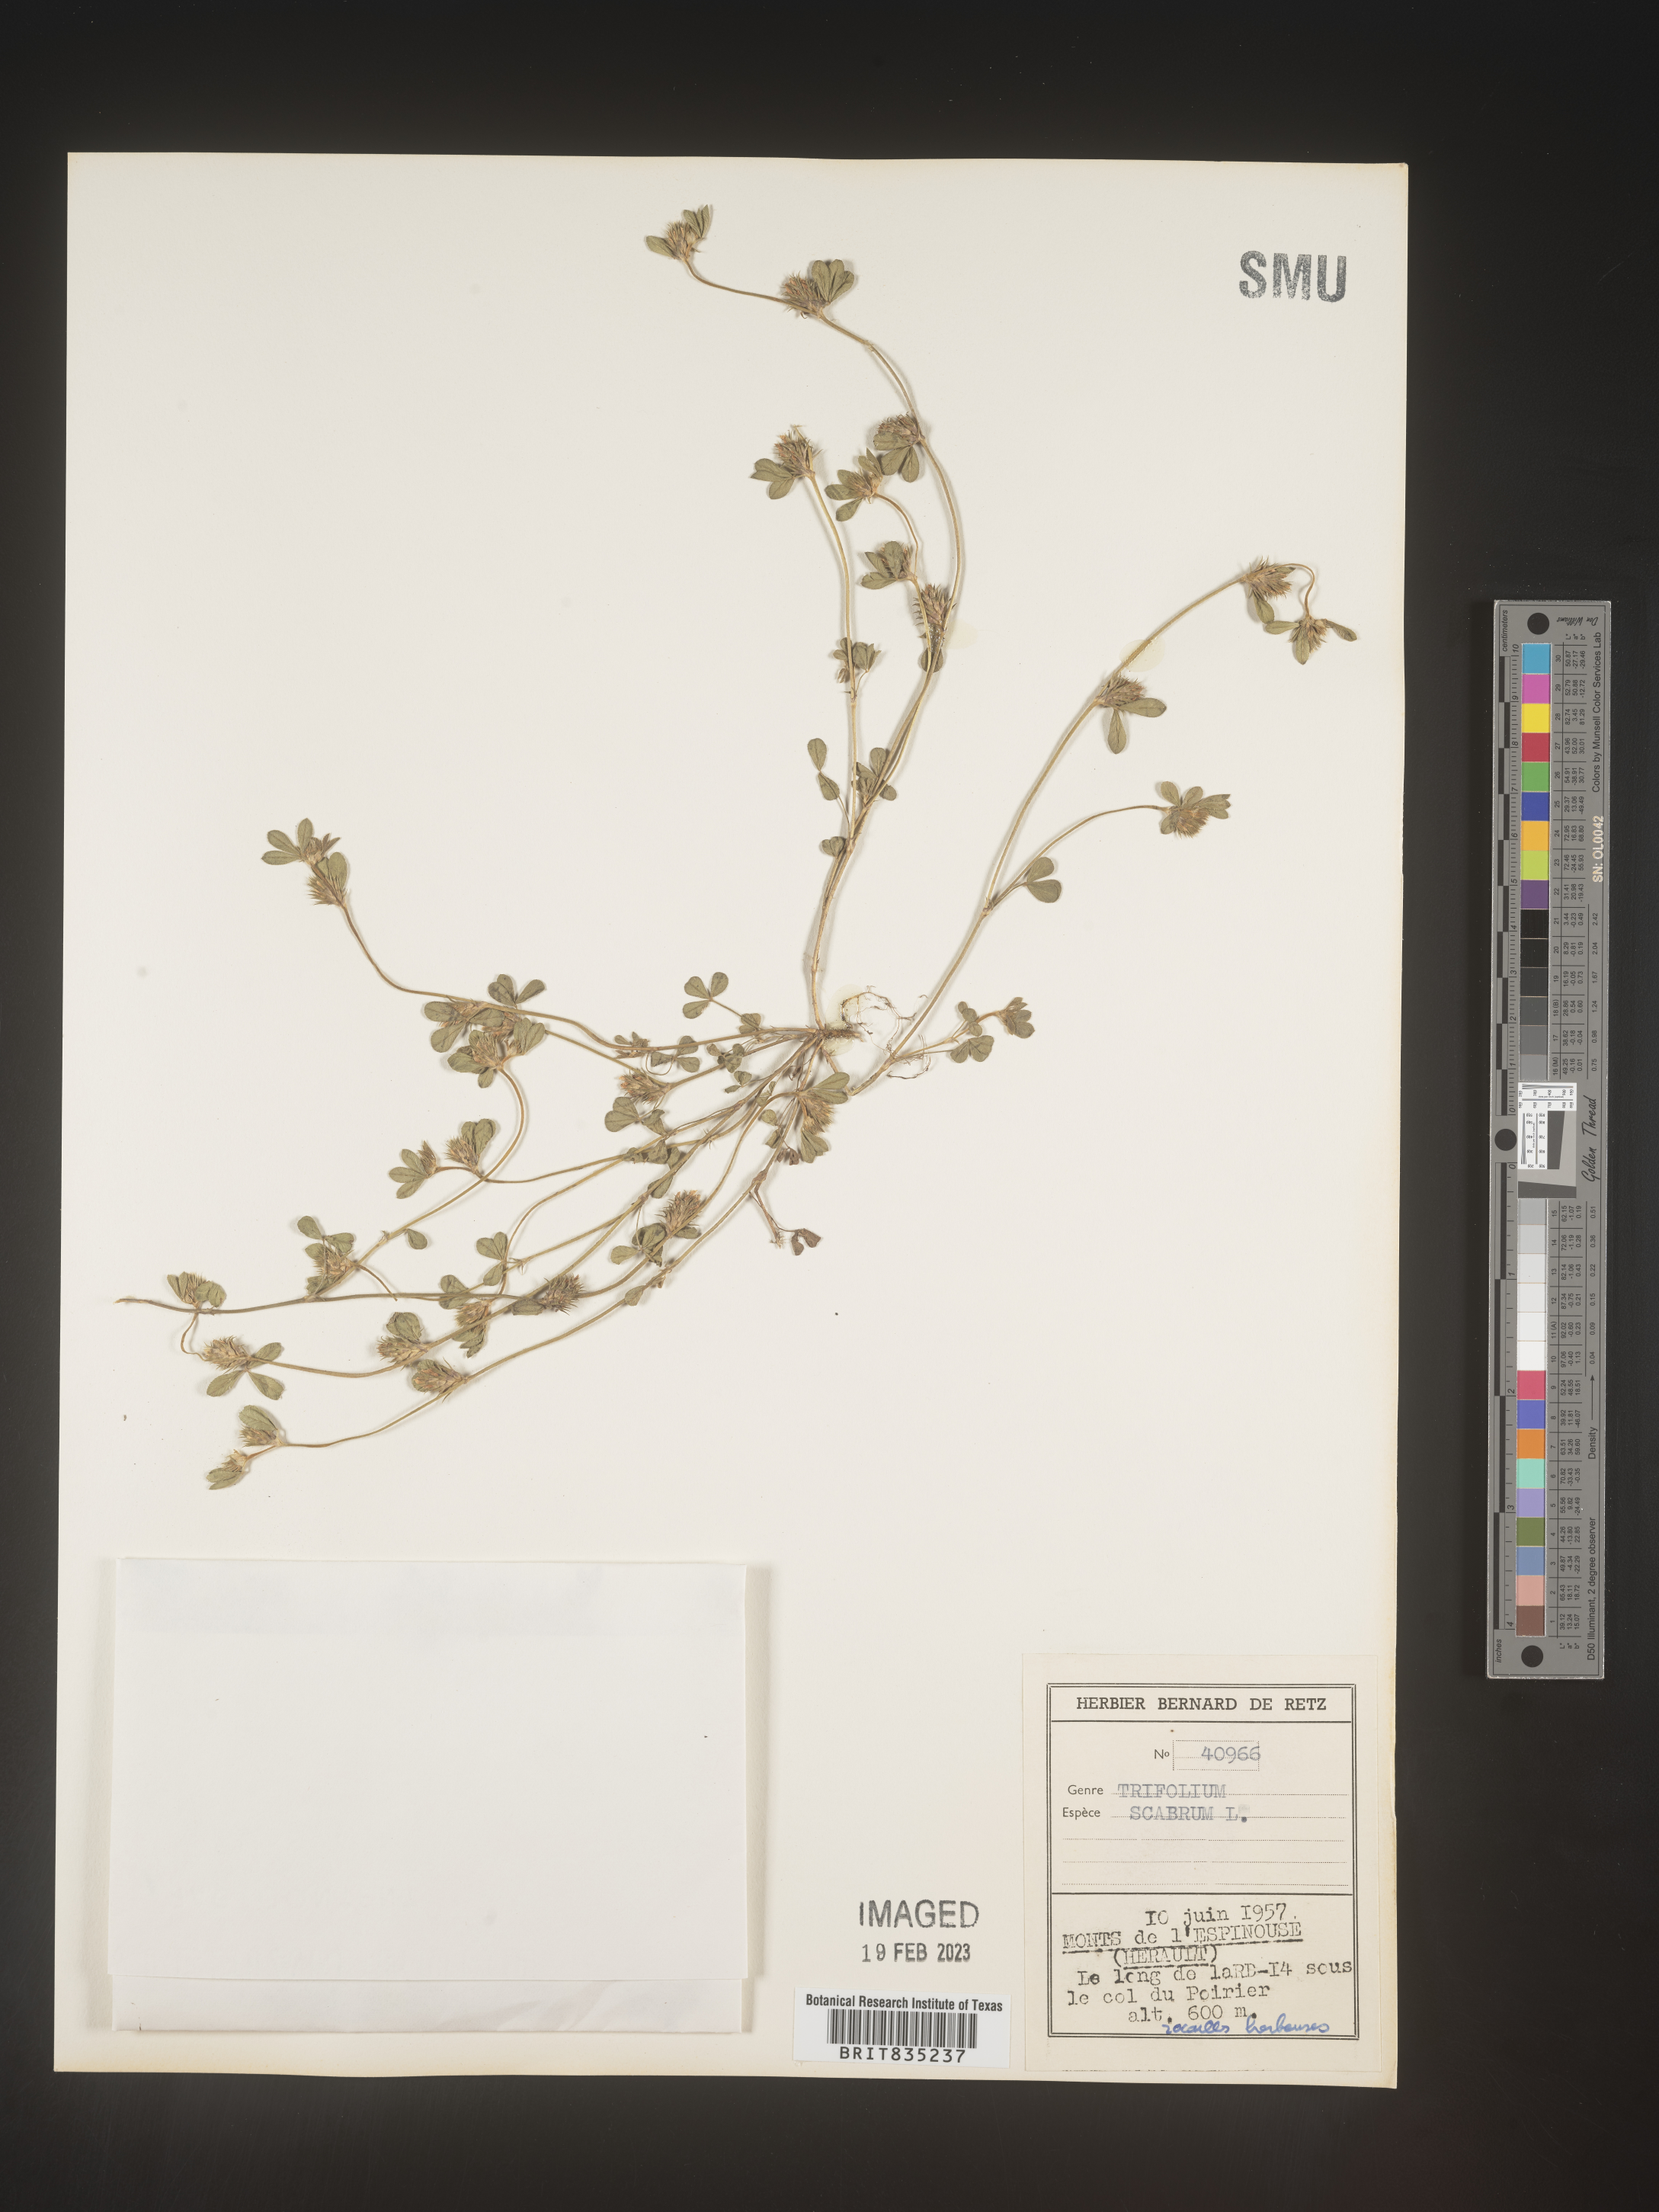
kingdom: Plantae
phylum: Tracheophyta
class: Magnoliopsida
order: Fabales
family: Fabaceae
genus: Trifolium
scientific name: Trifolium
